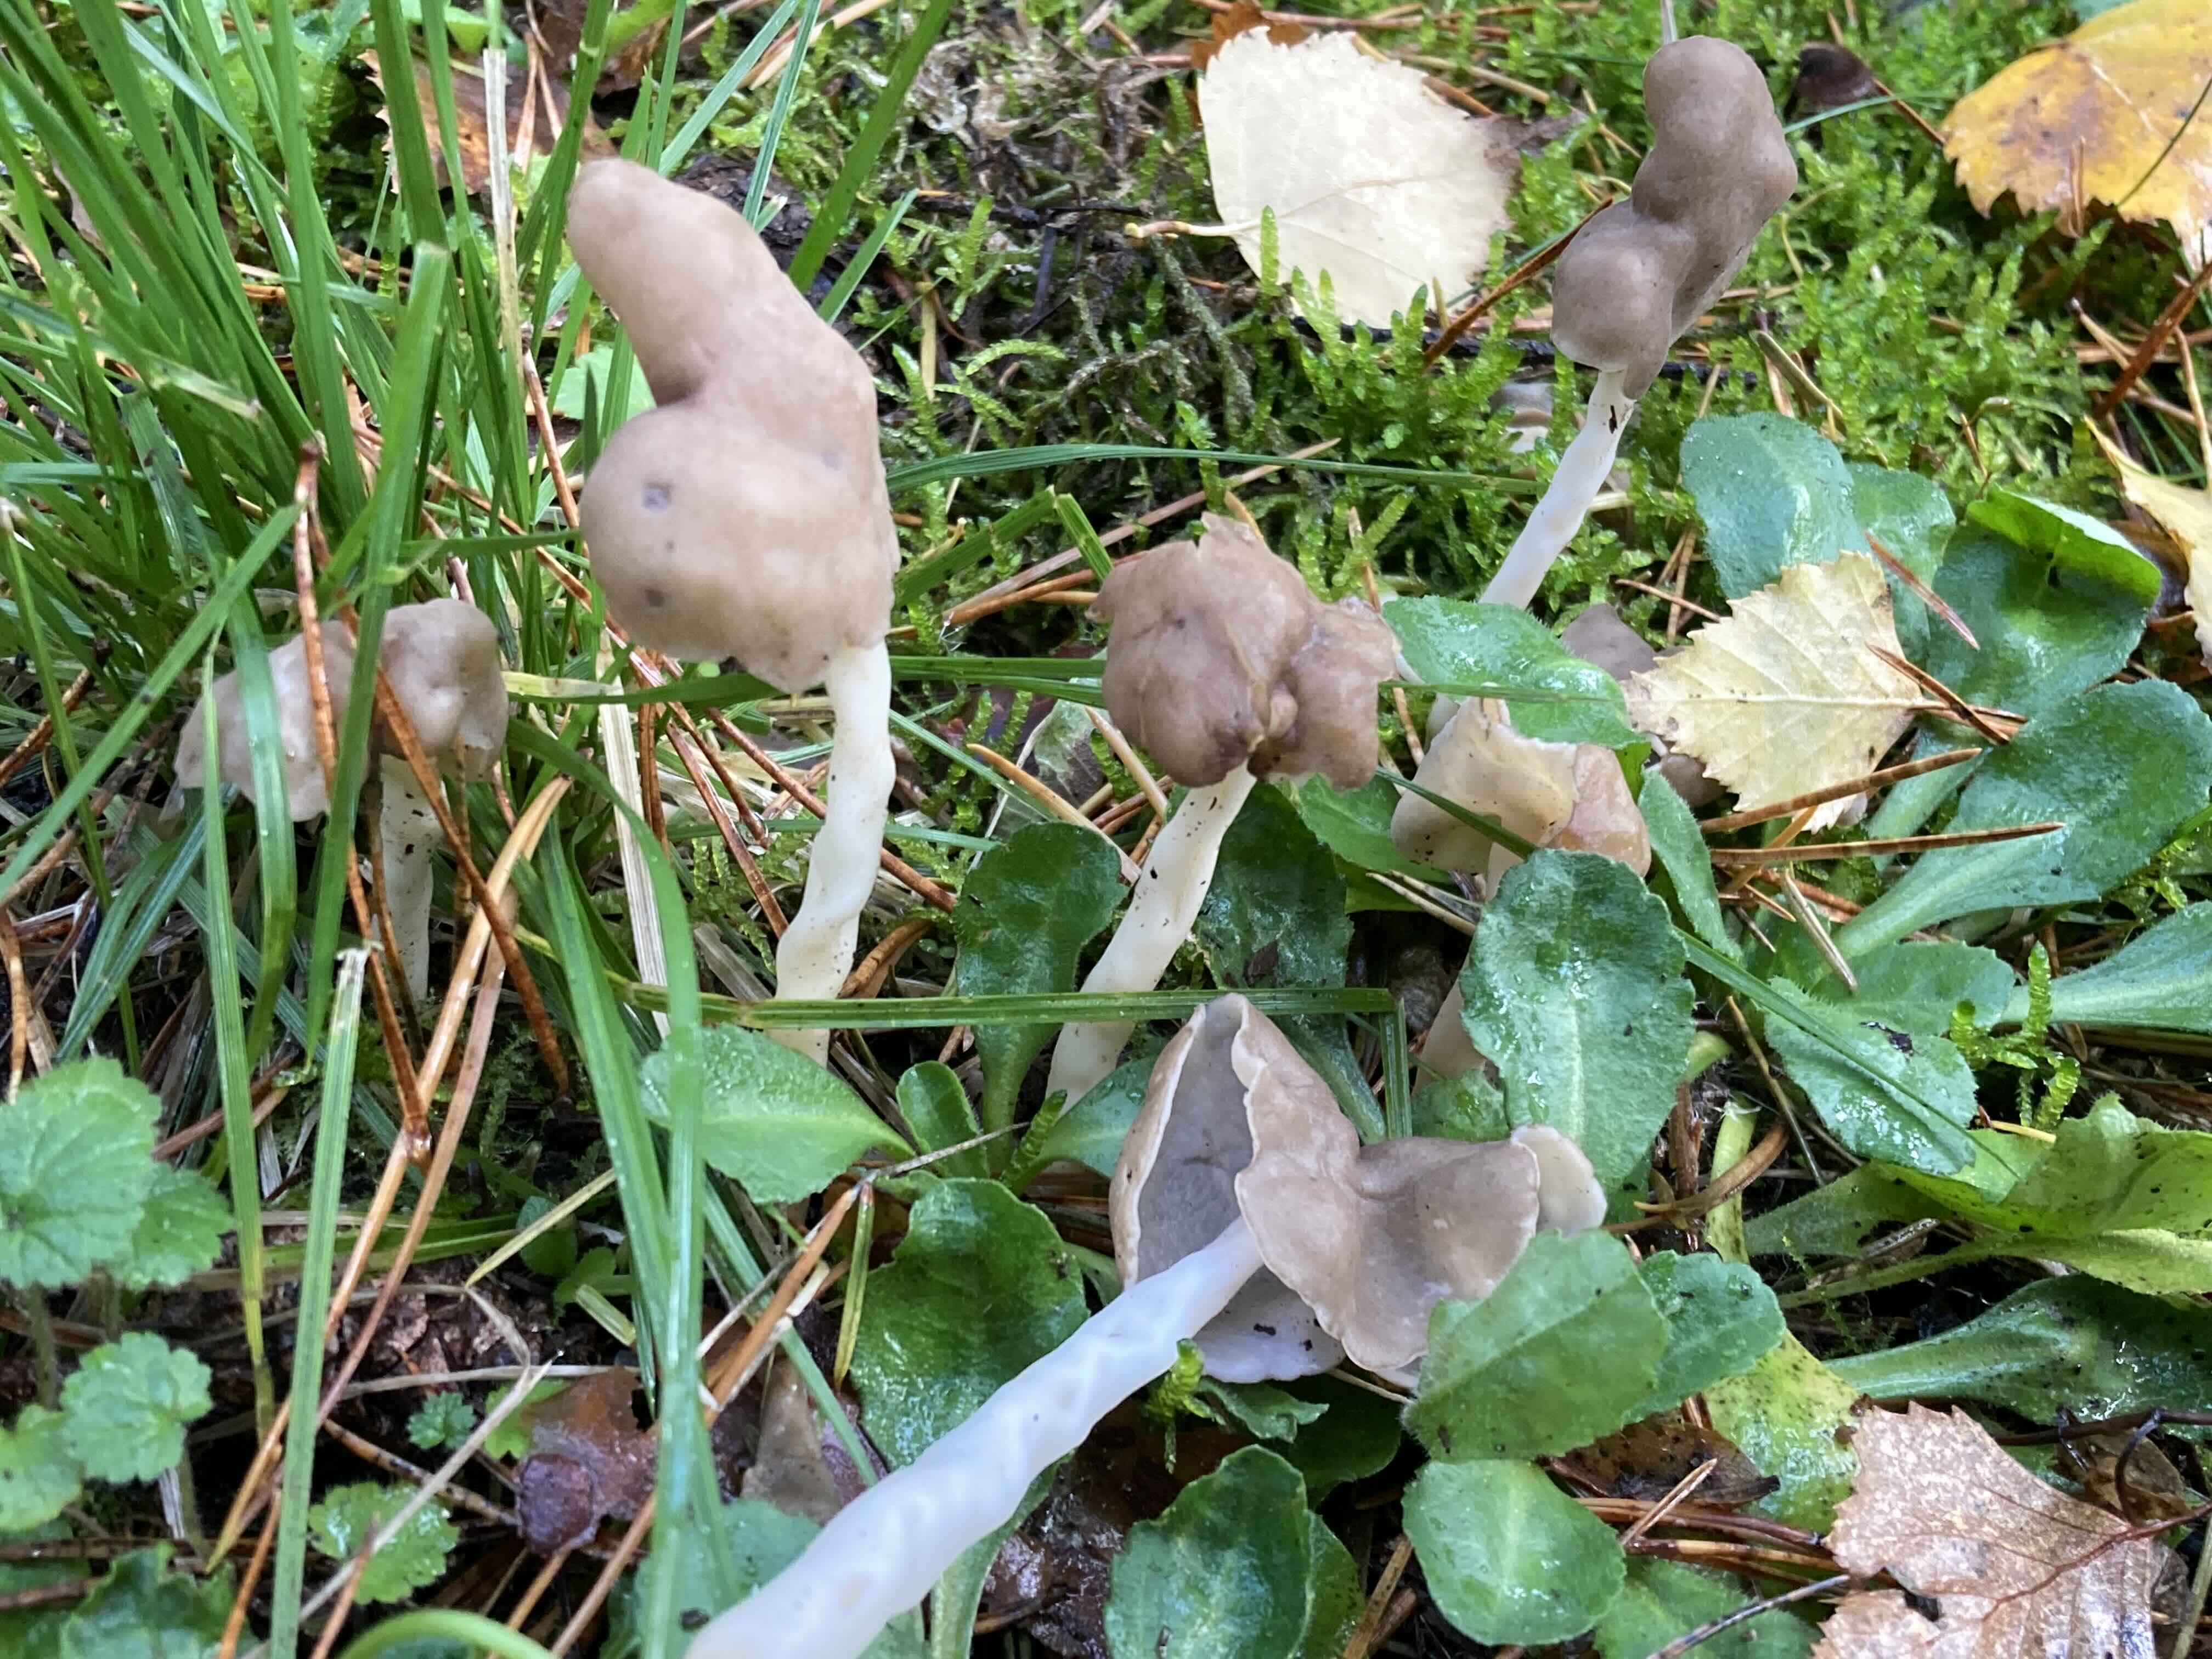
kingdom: Fungi
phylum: Ascomycota
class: Pezizomycetes
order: Pezizales
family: Helvellaceae
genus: Helvella
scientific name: Helvella elastica
